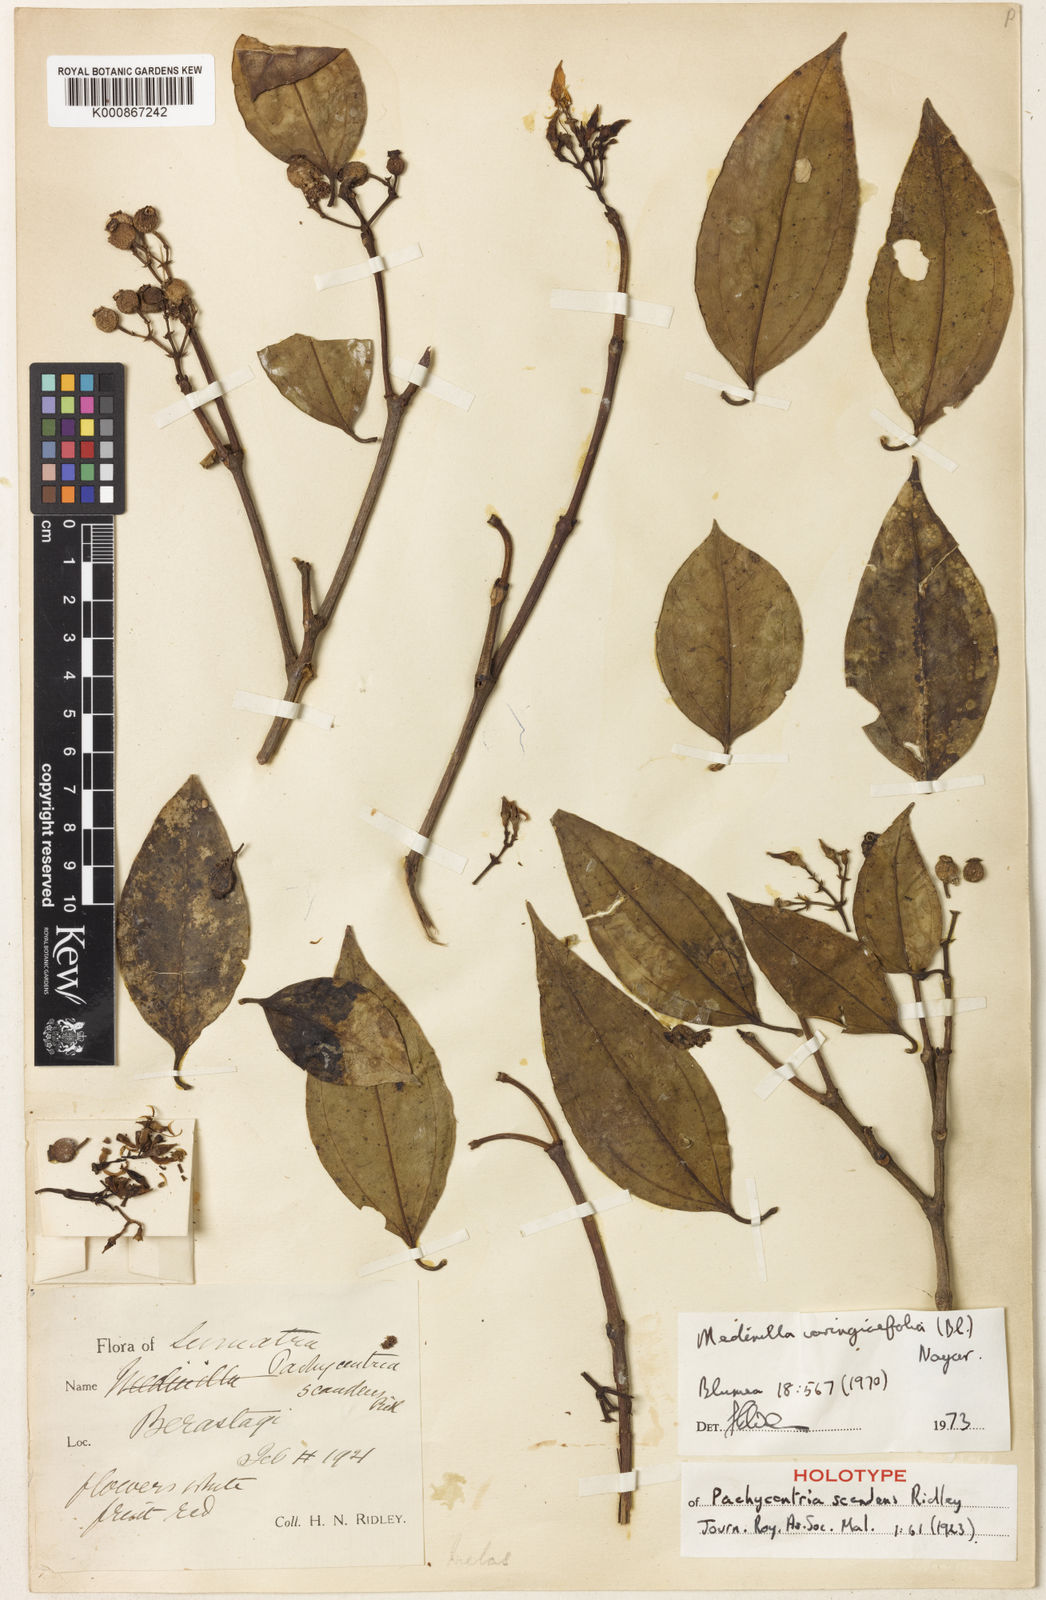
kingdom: Plantae
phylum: Tracheophyta
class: Magnoliopsida
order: Myrtales
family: Melastomataceae
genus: Pachycentria
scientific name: Pachycentria varingiaefolia
